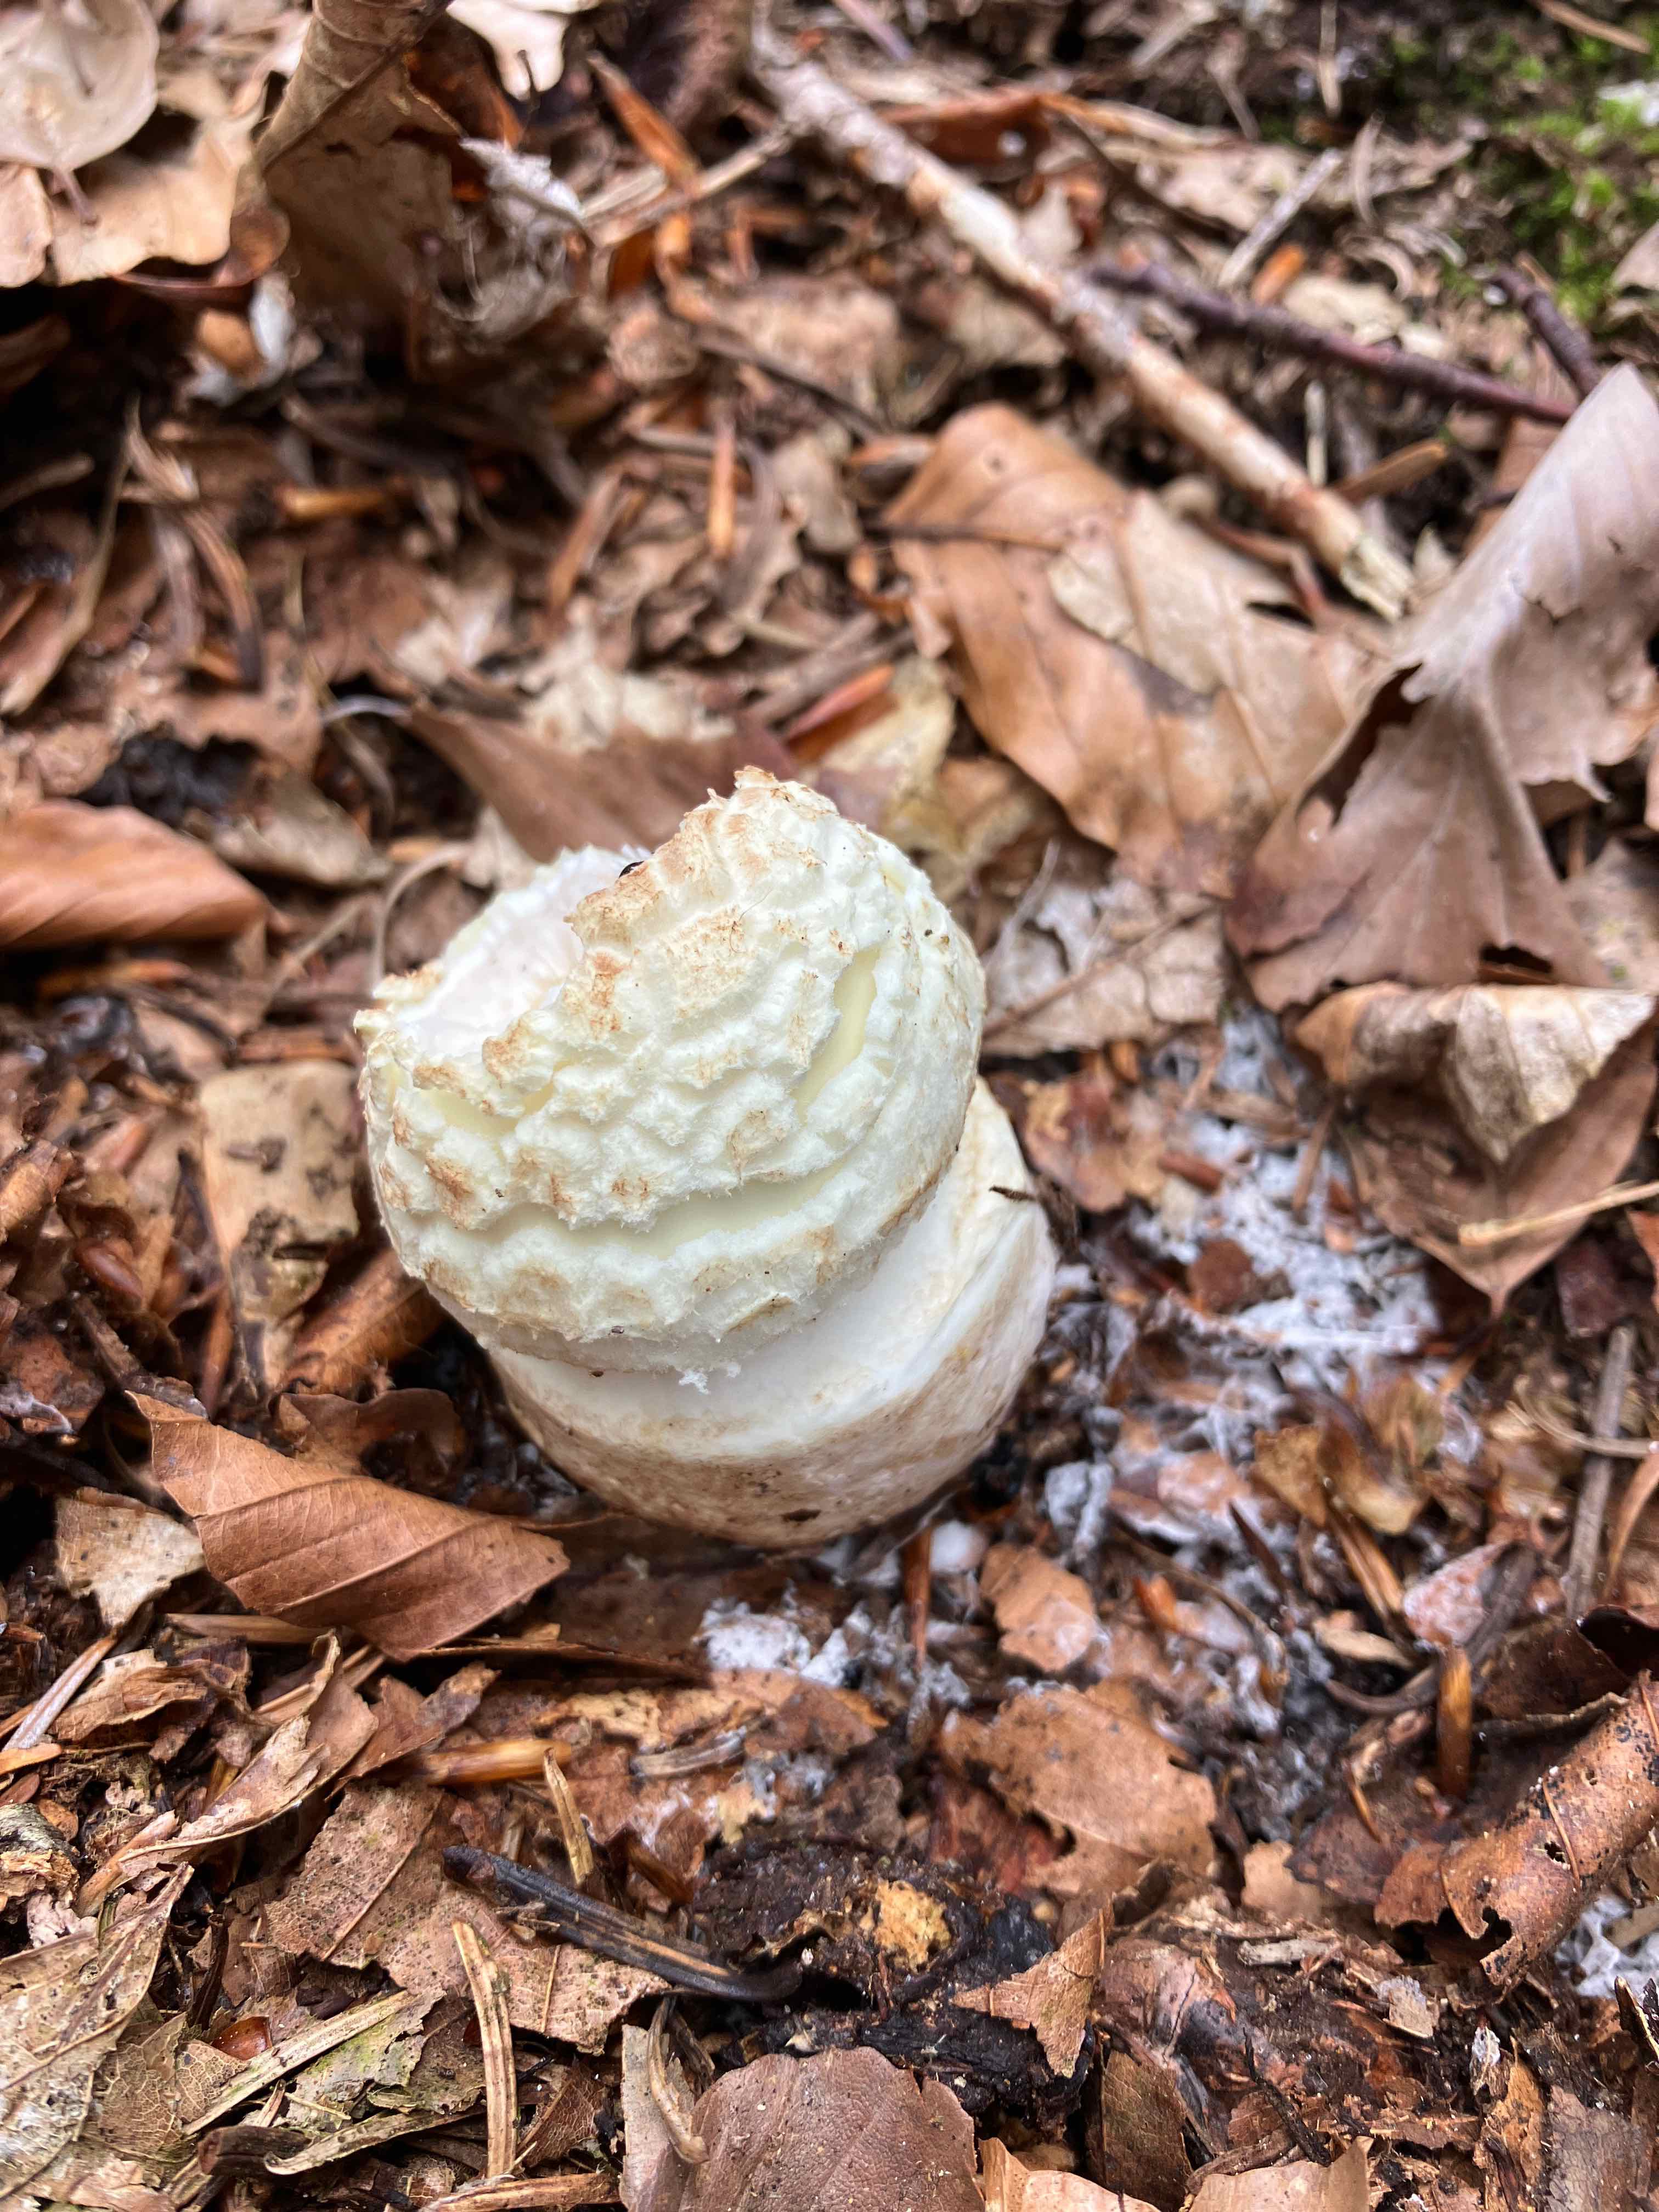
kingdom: Fungi
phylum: Basidiomycota
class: Agaricomycetes
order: Agaricales
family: Amanitaceae
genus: Amanita
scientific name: Amanita citrina
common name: kugleknoldet fluesvamp
